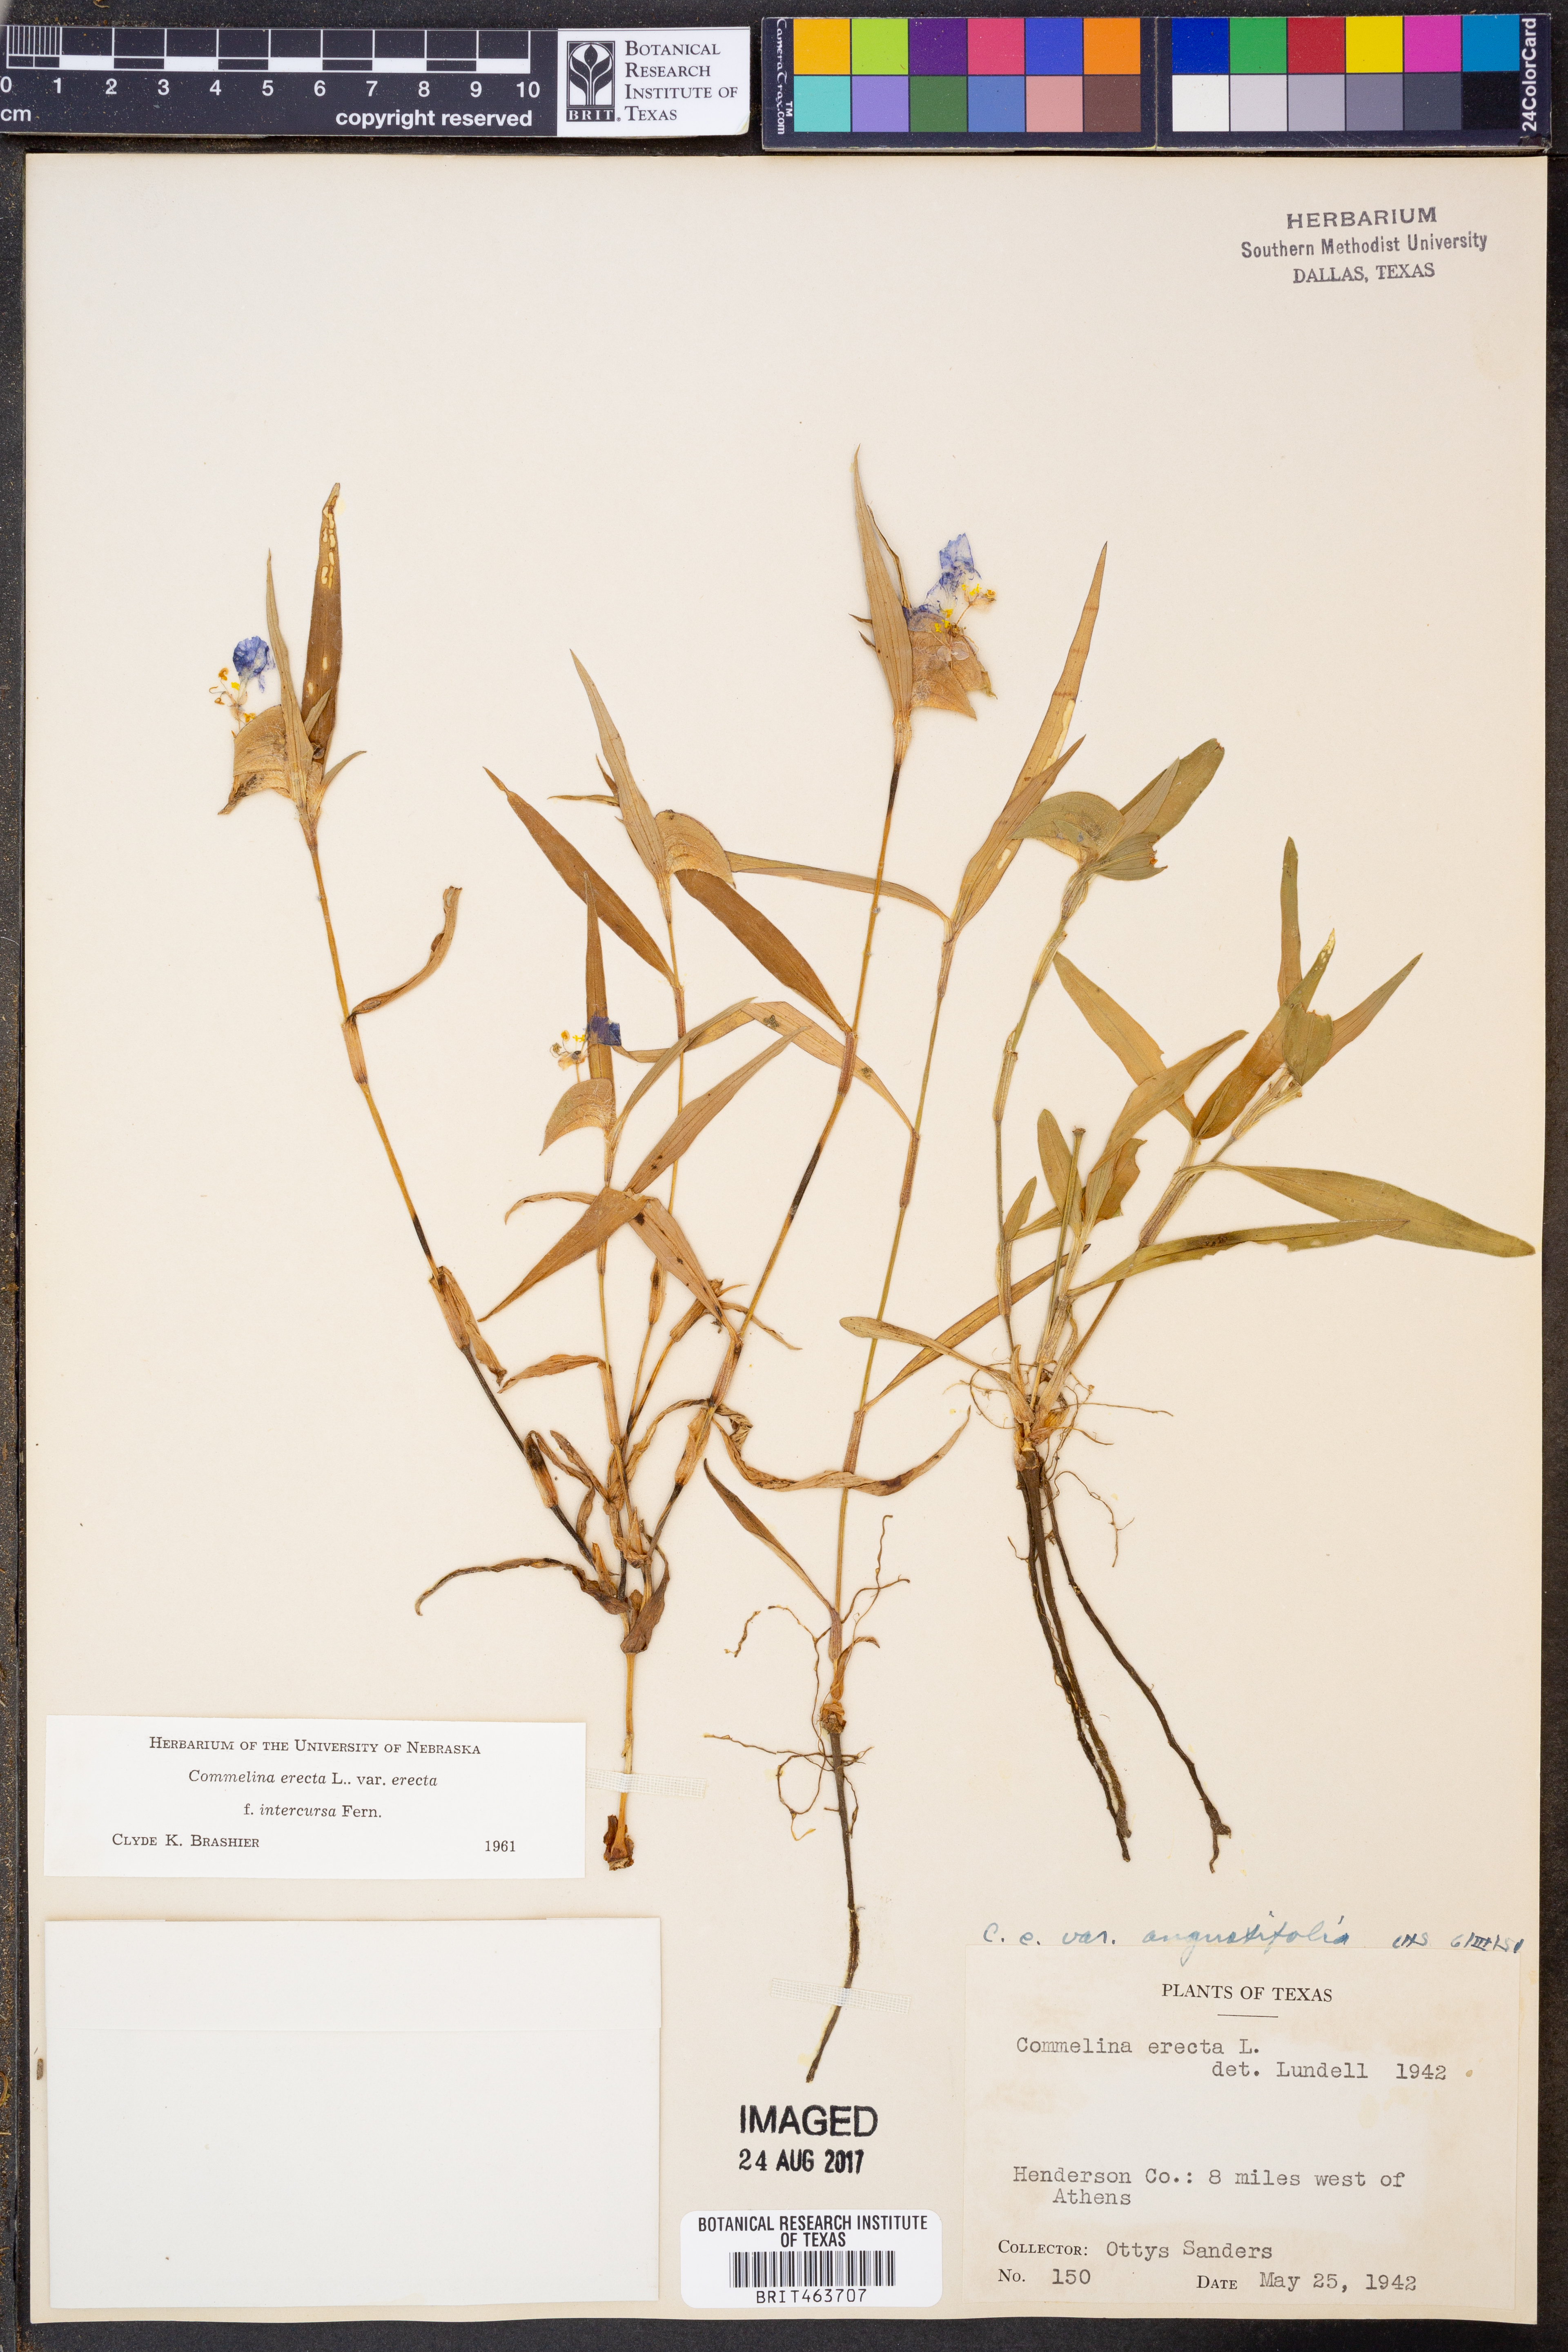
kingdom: Plantae
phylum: Tracheophyta
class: Liliopsida
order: Commelinales
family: Commelinaceae
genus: Commelina
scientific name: Commelina erecta
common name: Blousel blommetjie
